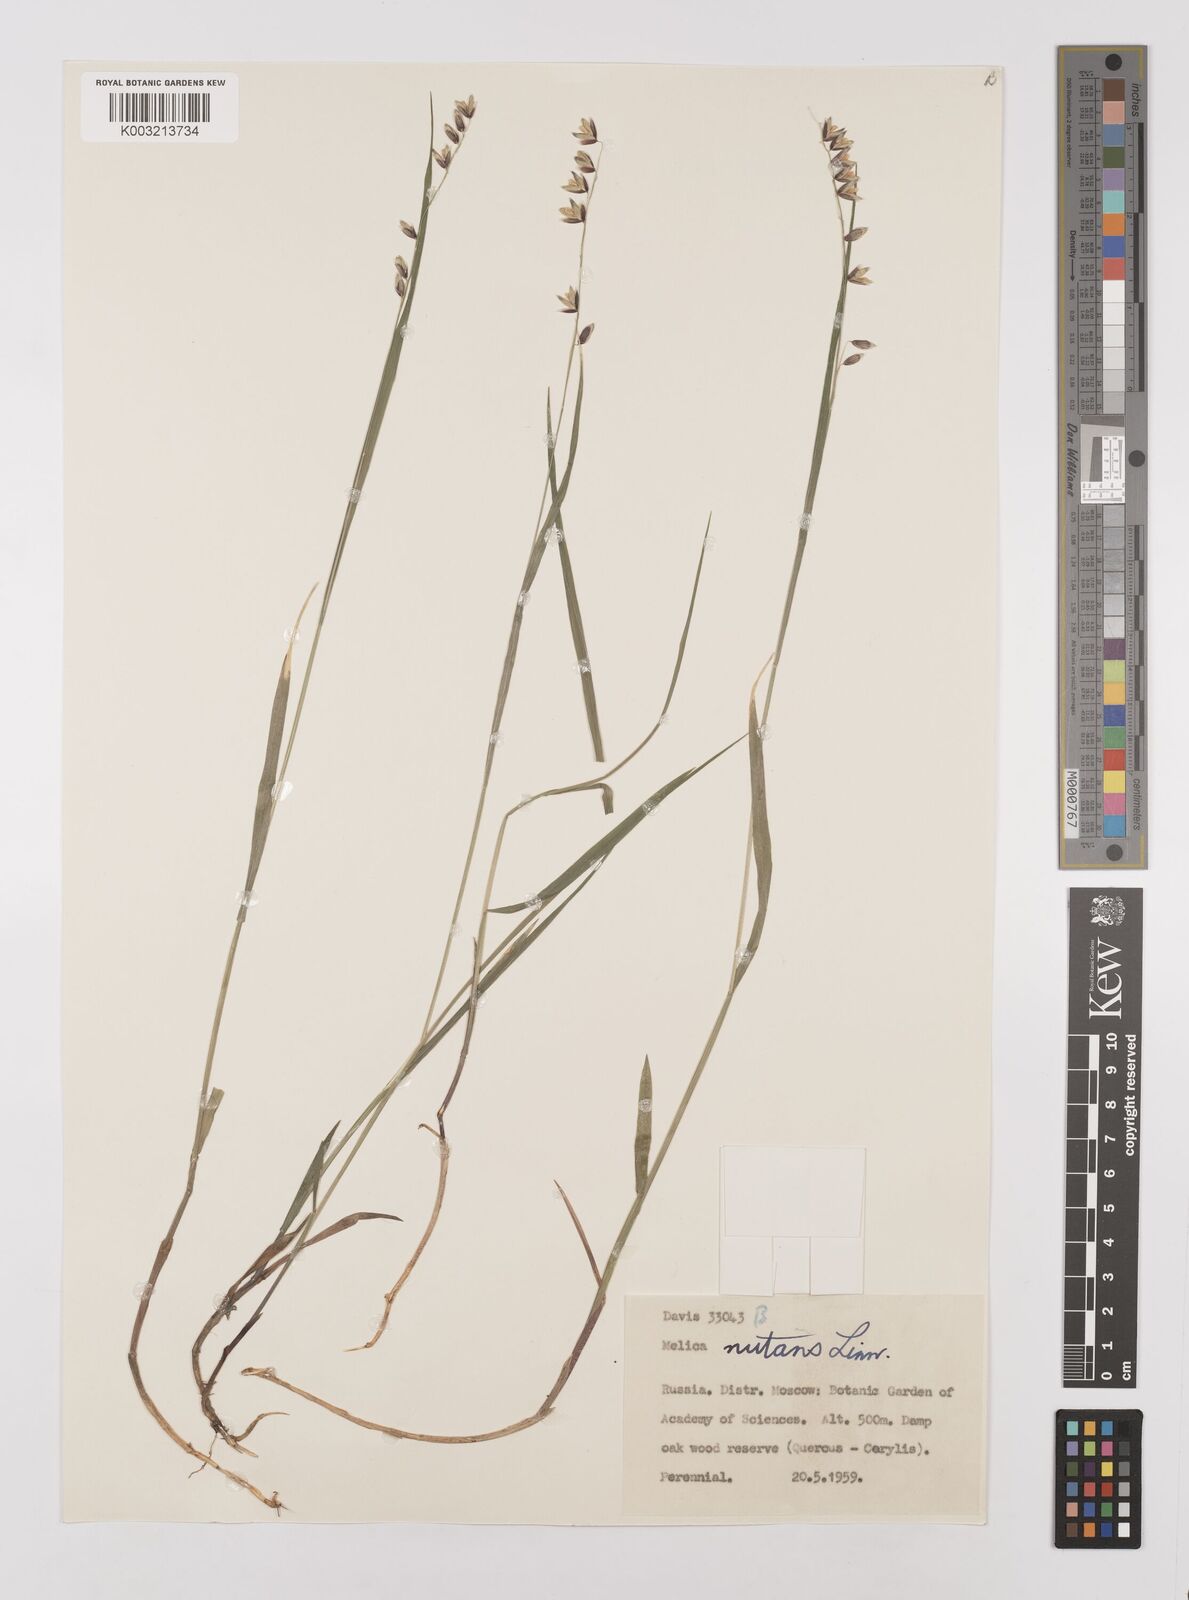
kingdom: Plantae
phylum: Tracheophyta
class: Liliopsida
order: Poales
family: Poaceae
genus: Melica
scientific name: Melica
